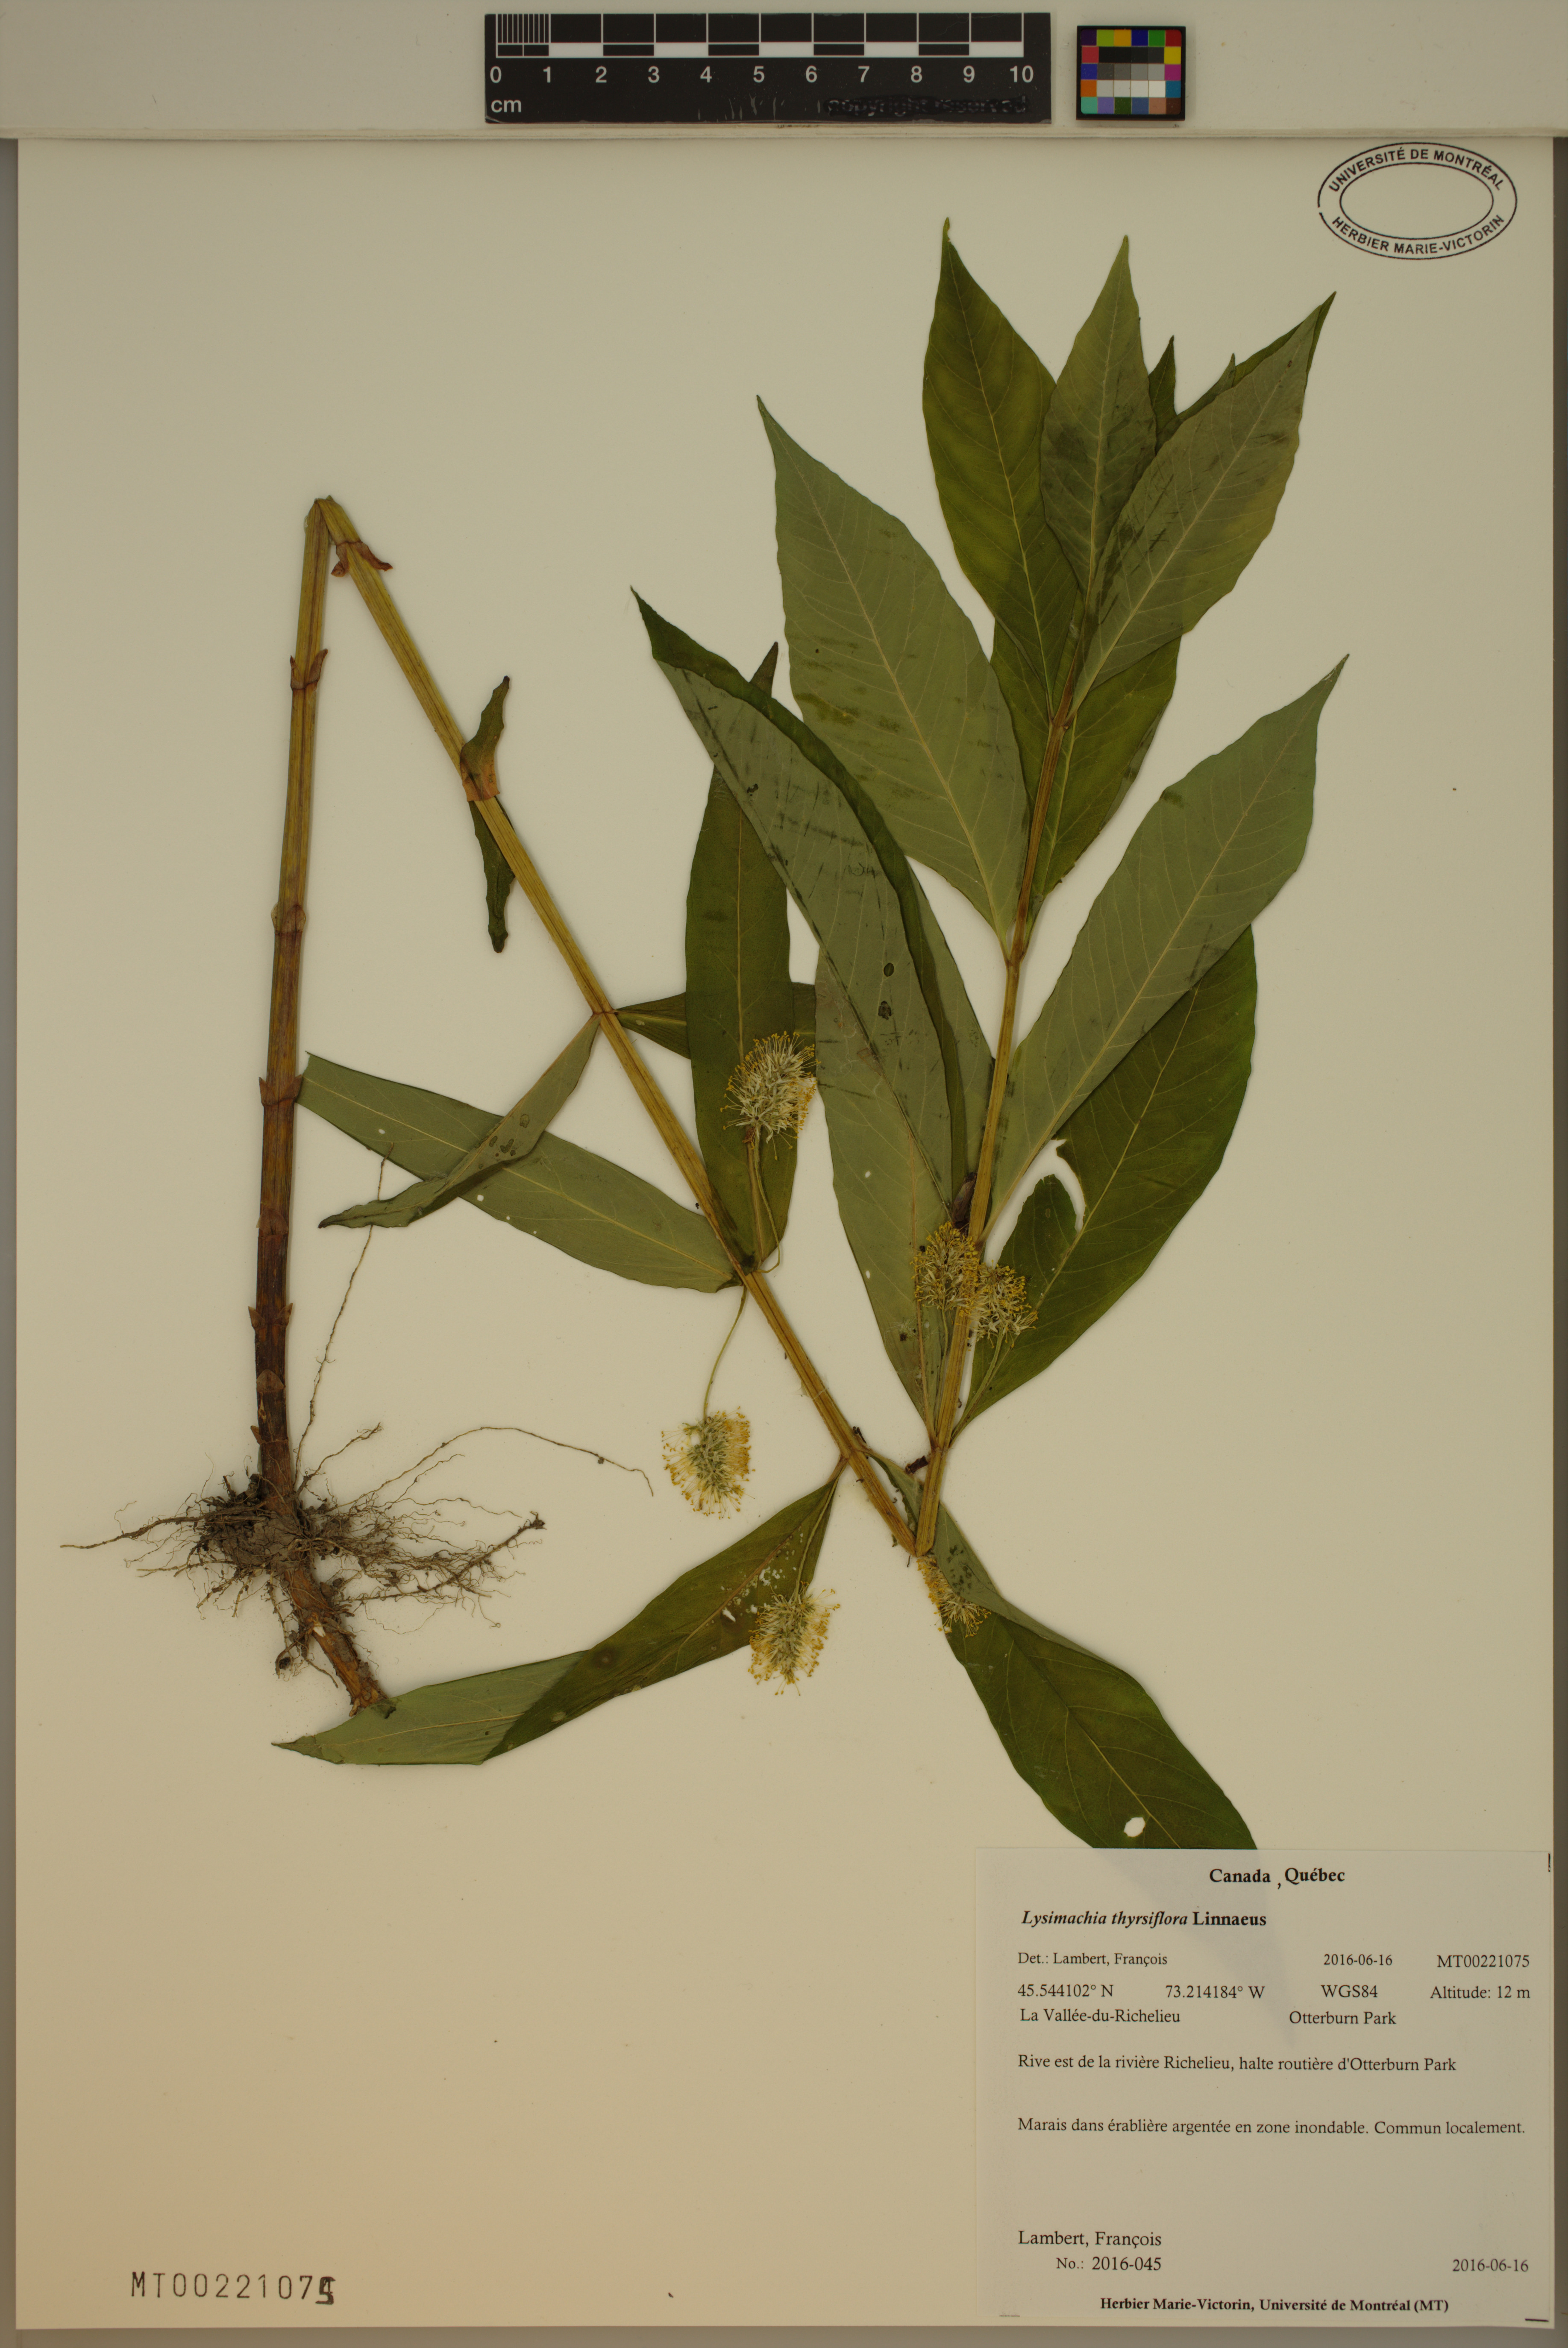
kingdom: Plantae
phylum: Tracheophyta
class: Magnoliopsida
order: Ericales
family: Primulaceae
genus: Lysimachia
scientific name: Lysimachia thyrsiflora
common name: Tufted loosestrife
